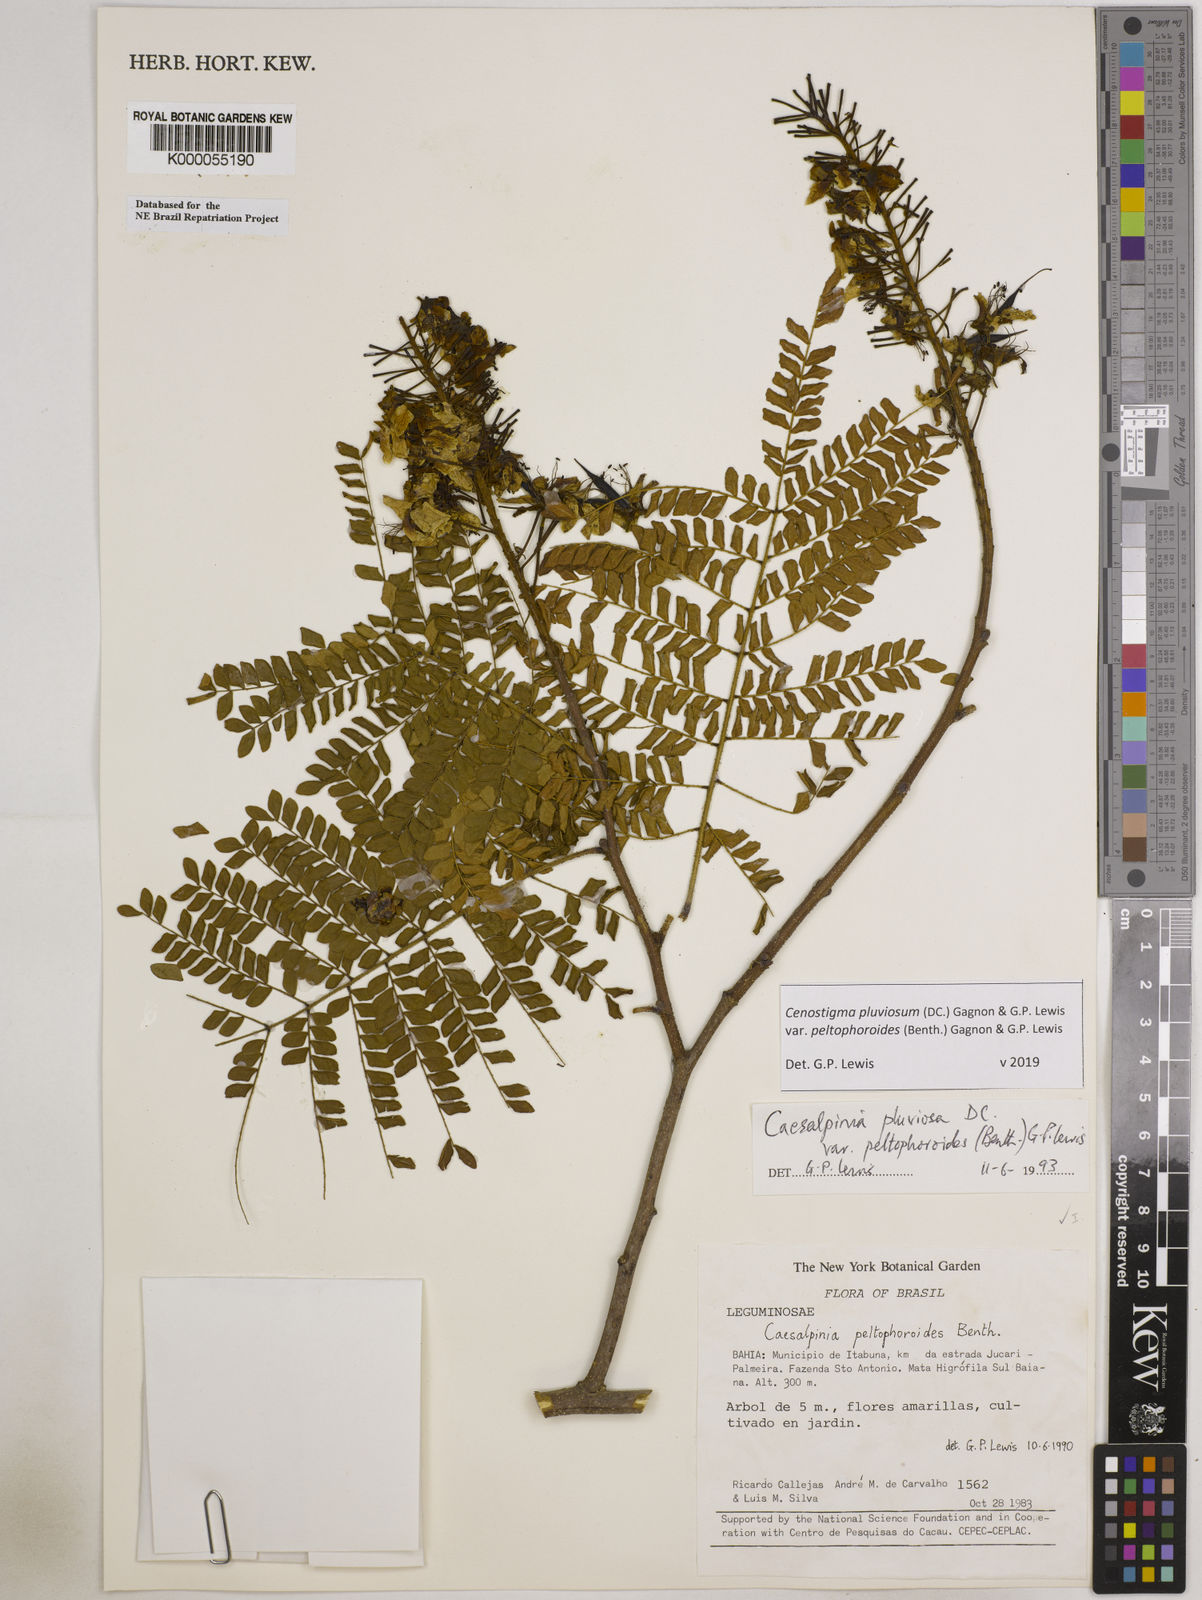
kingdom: Plantae
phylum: Tracheophyta
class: Magnoliopsida
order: Fabales
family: Fabaceae
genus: Cenostigma
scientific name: Cenostigma pluviosum
